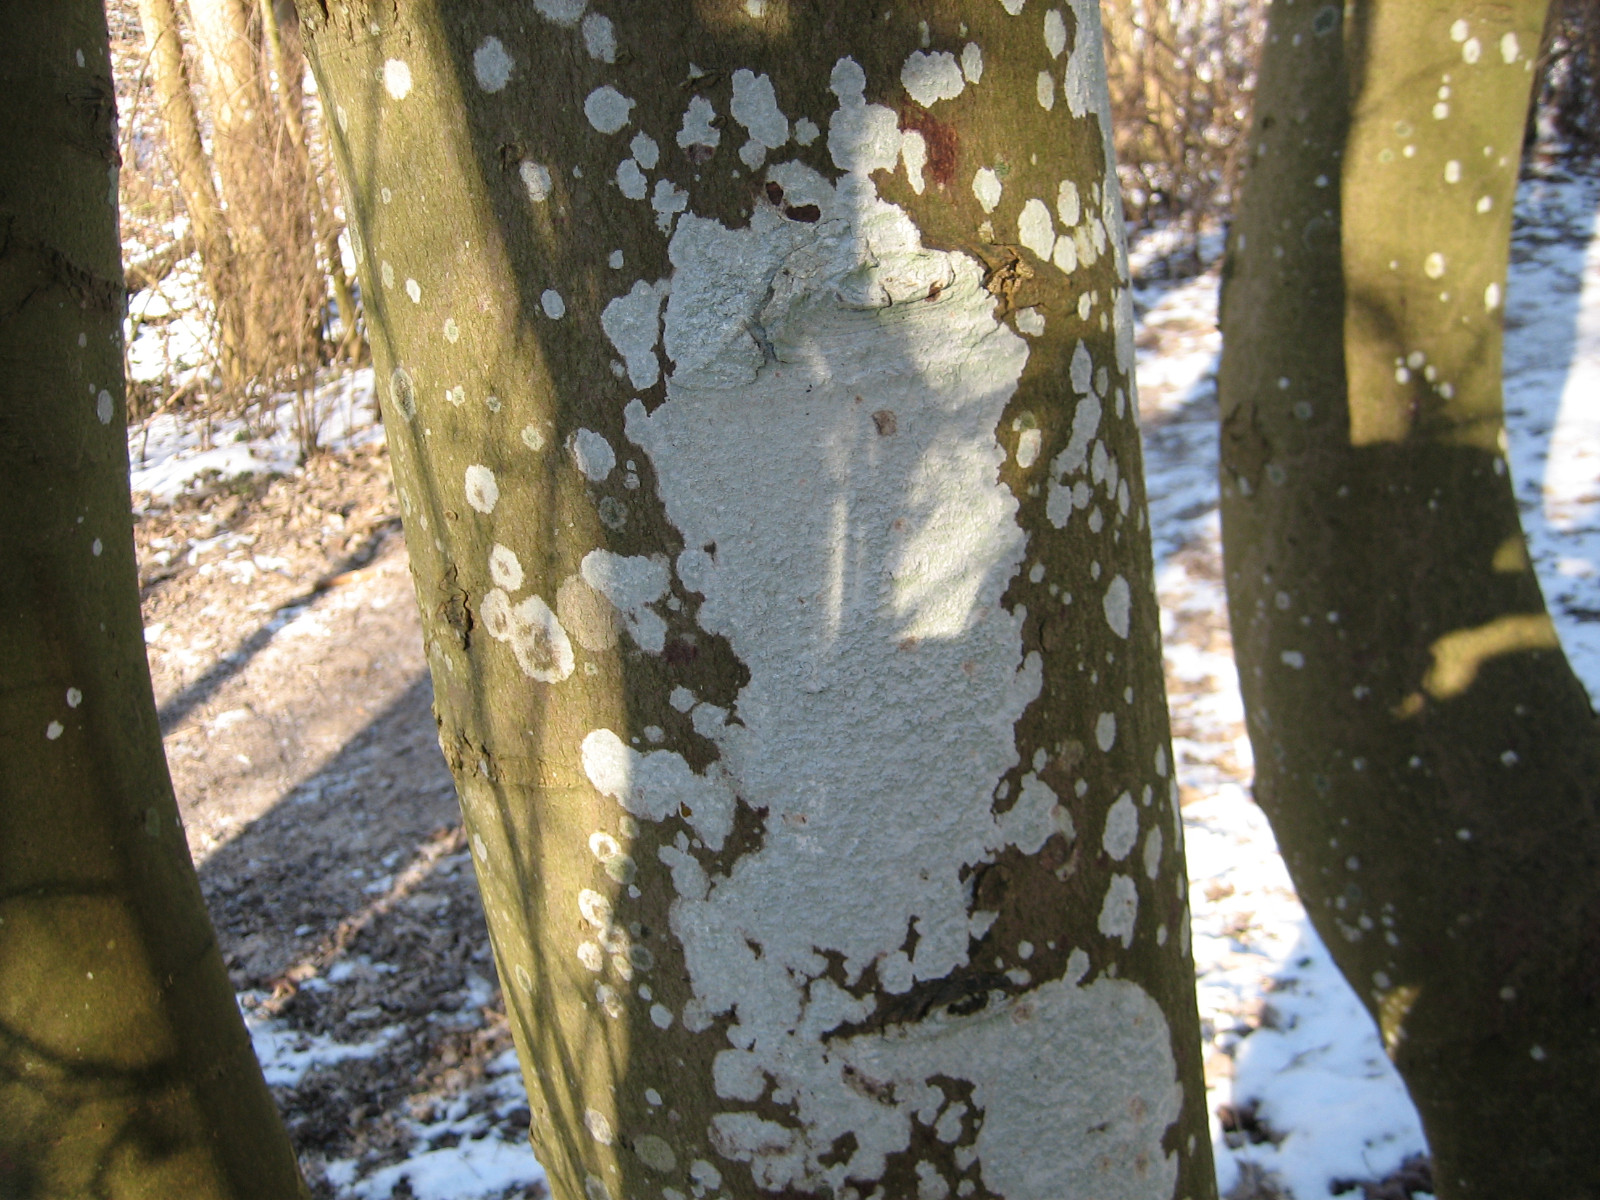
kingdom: Fungi
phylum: Ascomycota
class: Lecanoromycetes
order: Ostropales
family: Phlyctidaceae
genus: Phlyctis
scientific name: Phlyctis argena
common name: almindelig sølvlav
